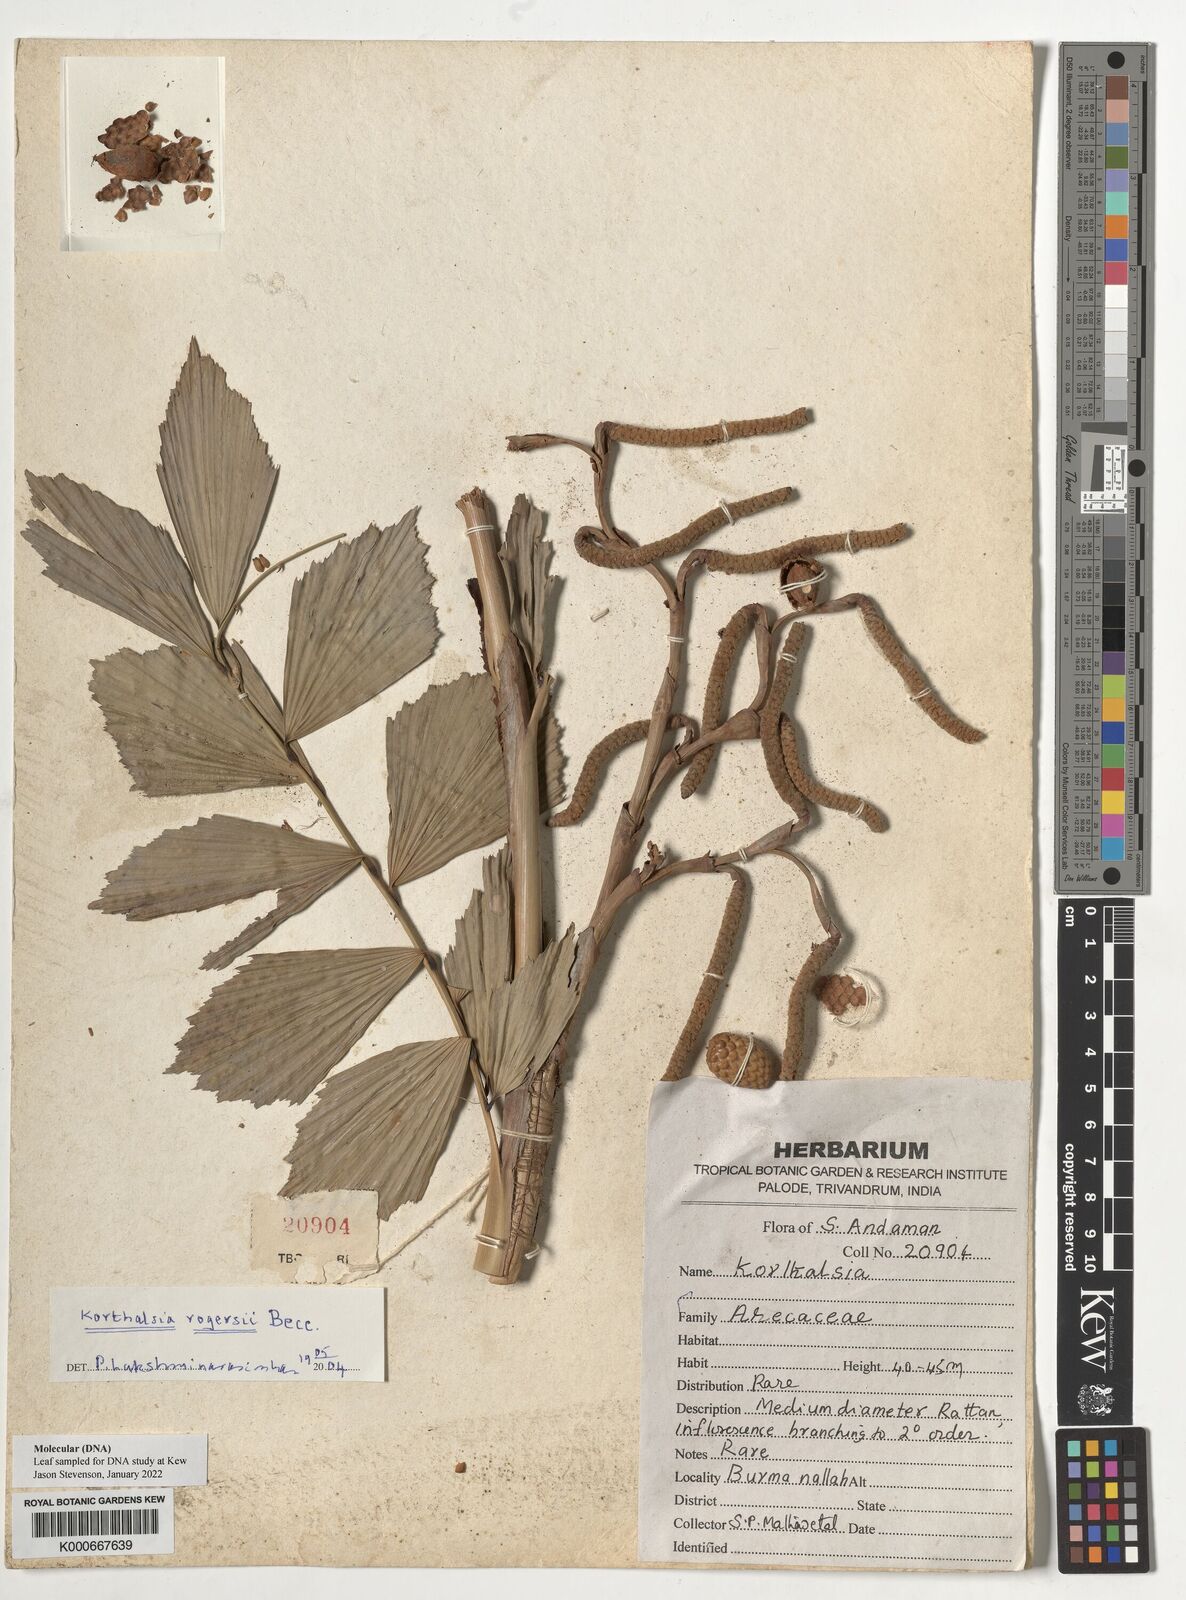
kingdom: Plantae
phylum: Tracheophyta
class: Liliopsida
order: Arecales
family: Arecaceae
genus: Korthalsia
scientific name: Korthalsia rogersii
